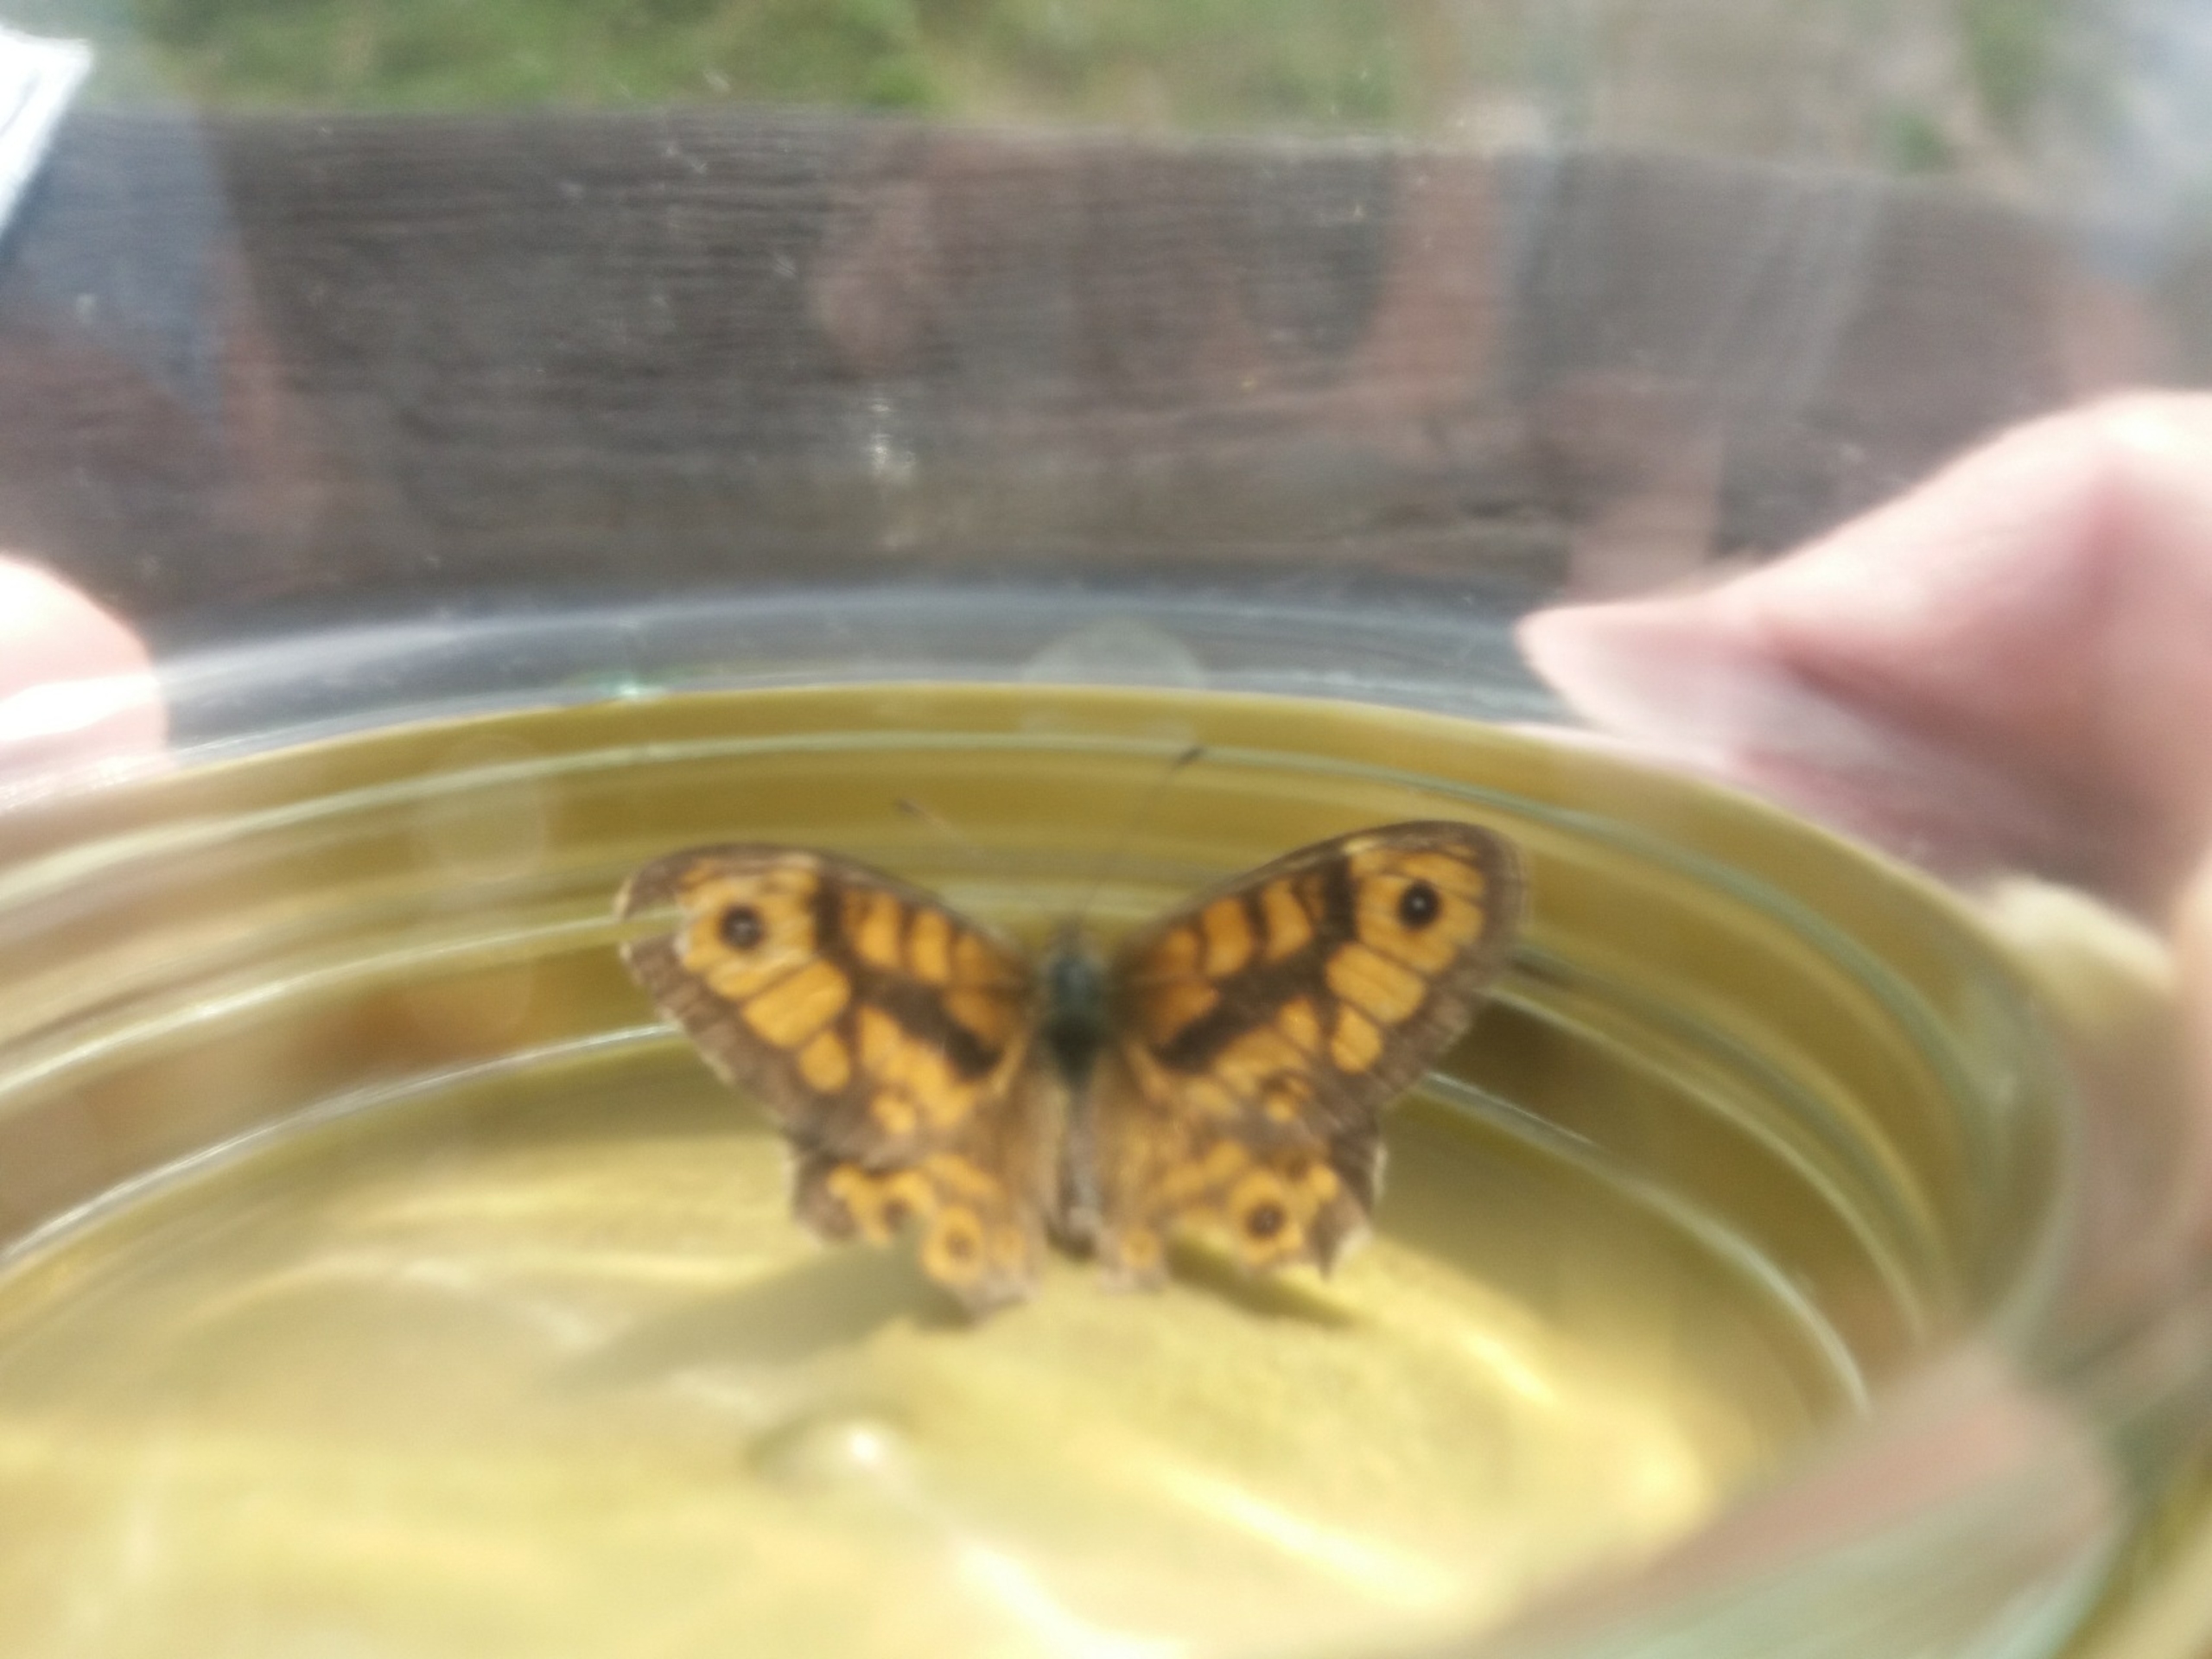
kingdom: Animalia
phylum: Arthropoda
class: Insecta
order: Lepidoptera
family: Nymphalidae
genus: Pararge
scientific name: Pararge Lasiommata megera
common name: Vejrandøje
